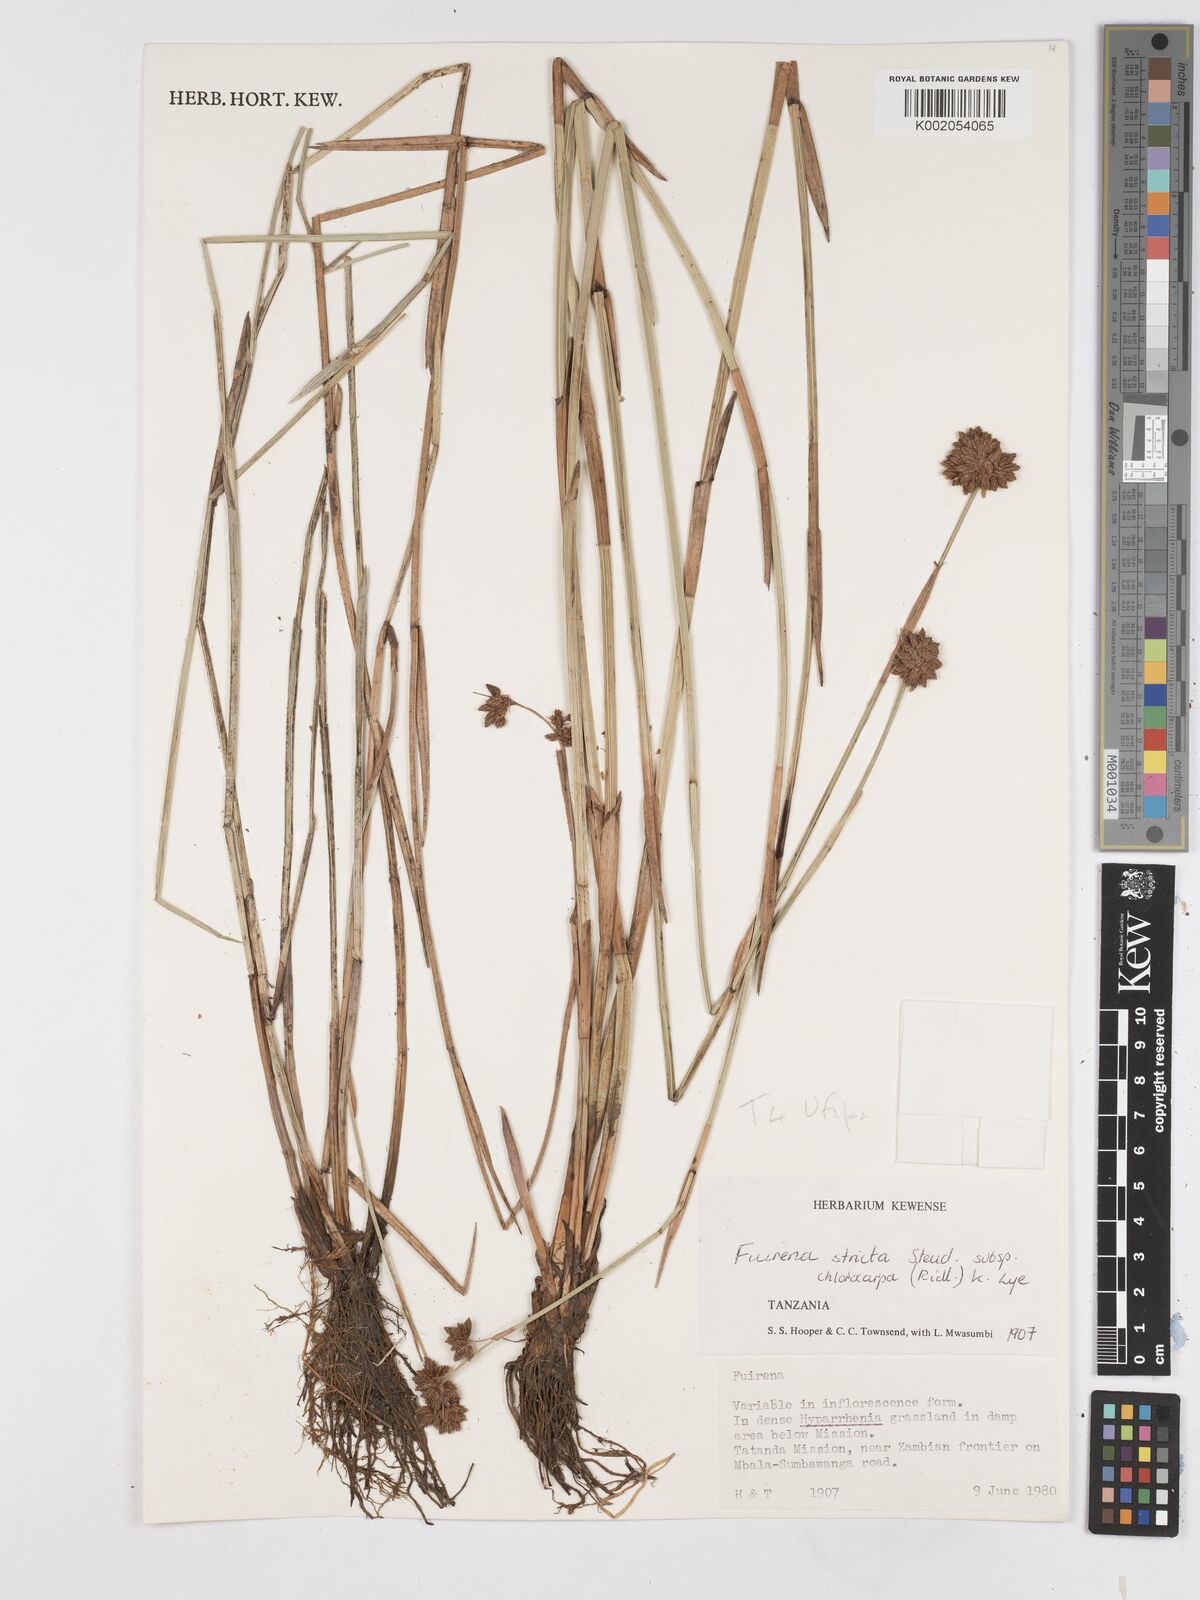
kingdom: Plantae
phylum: Tracheophyta
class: Liliopsida
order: Poales
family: Cyperaceae
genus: Fuirena
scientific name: Fuirena stricta
